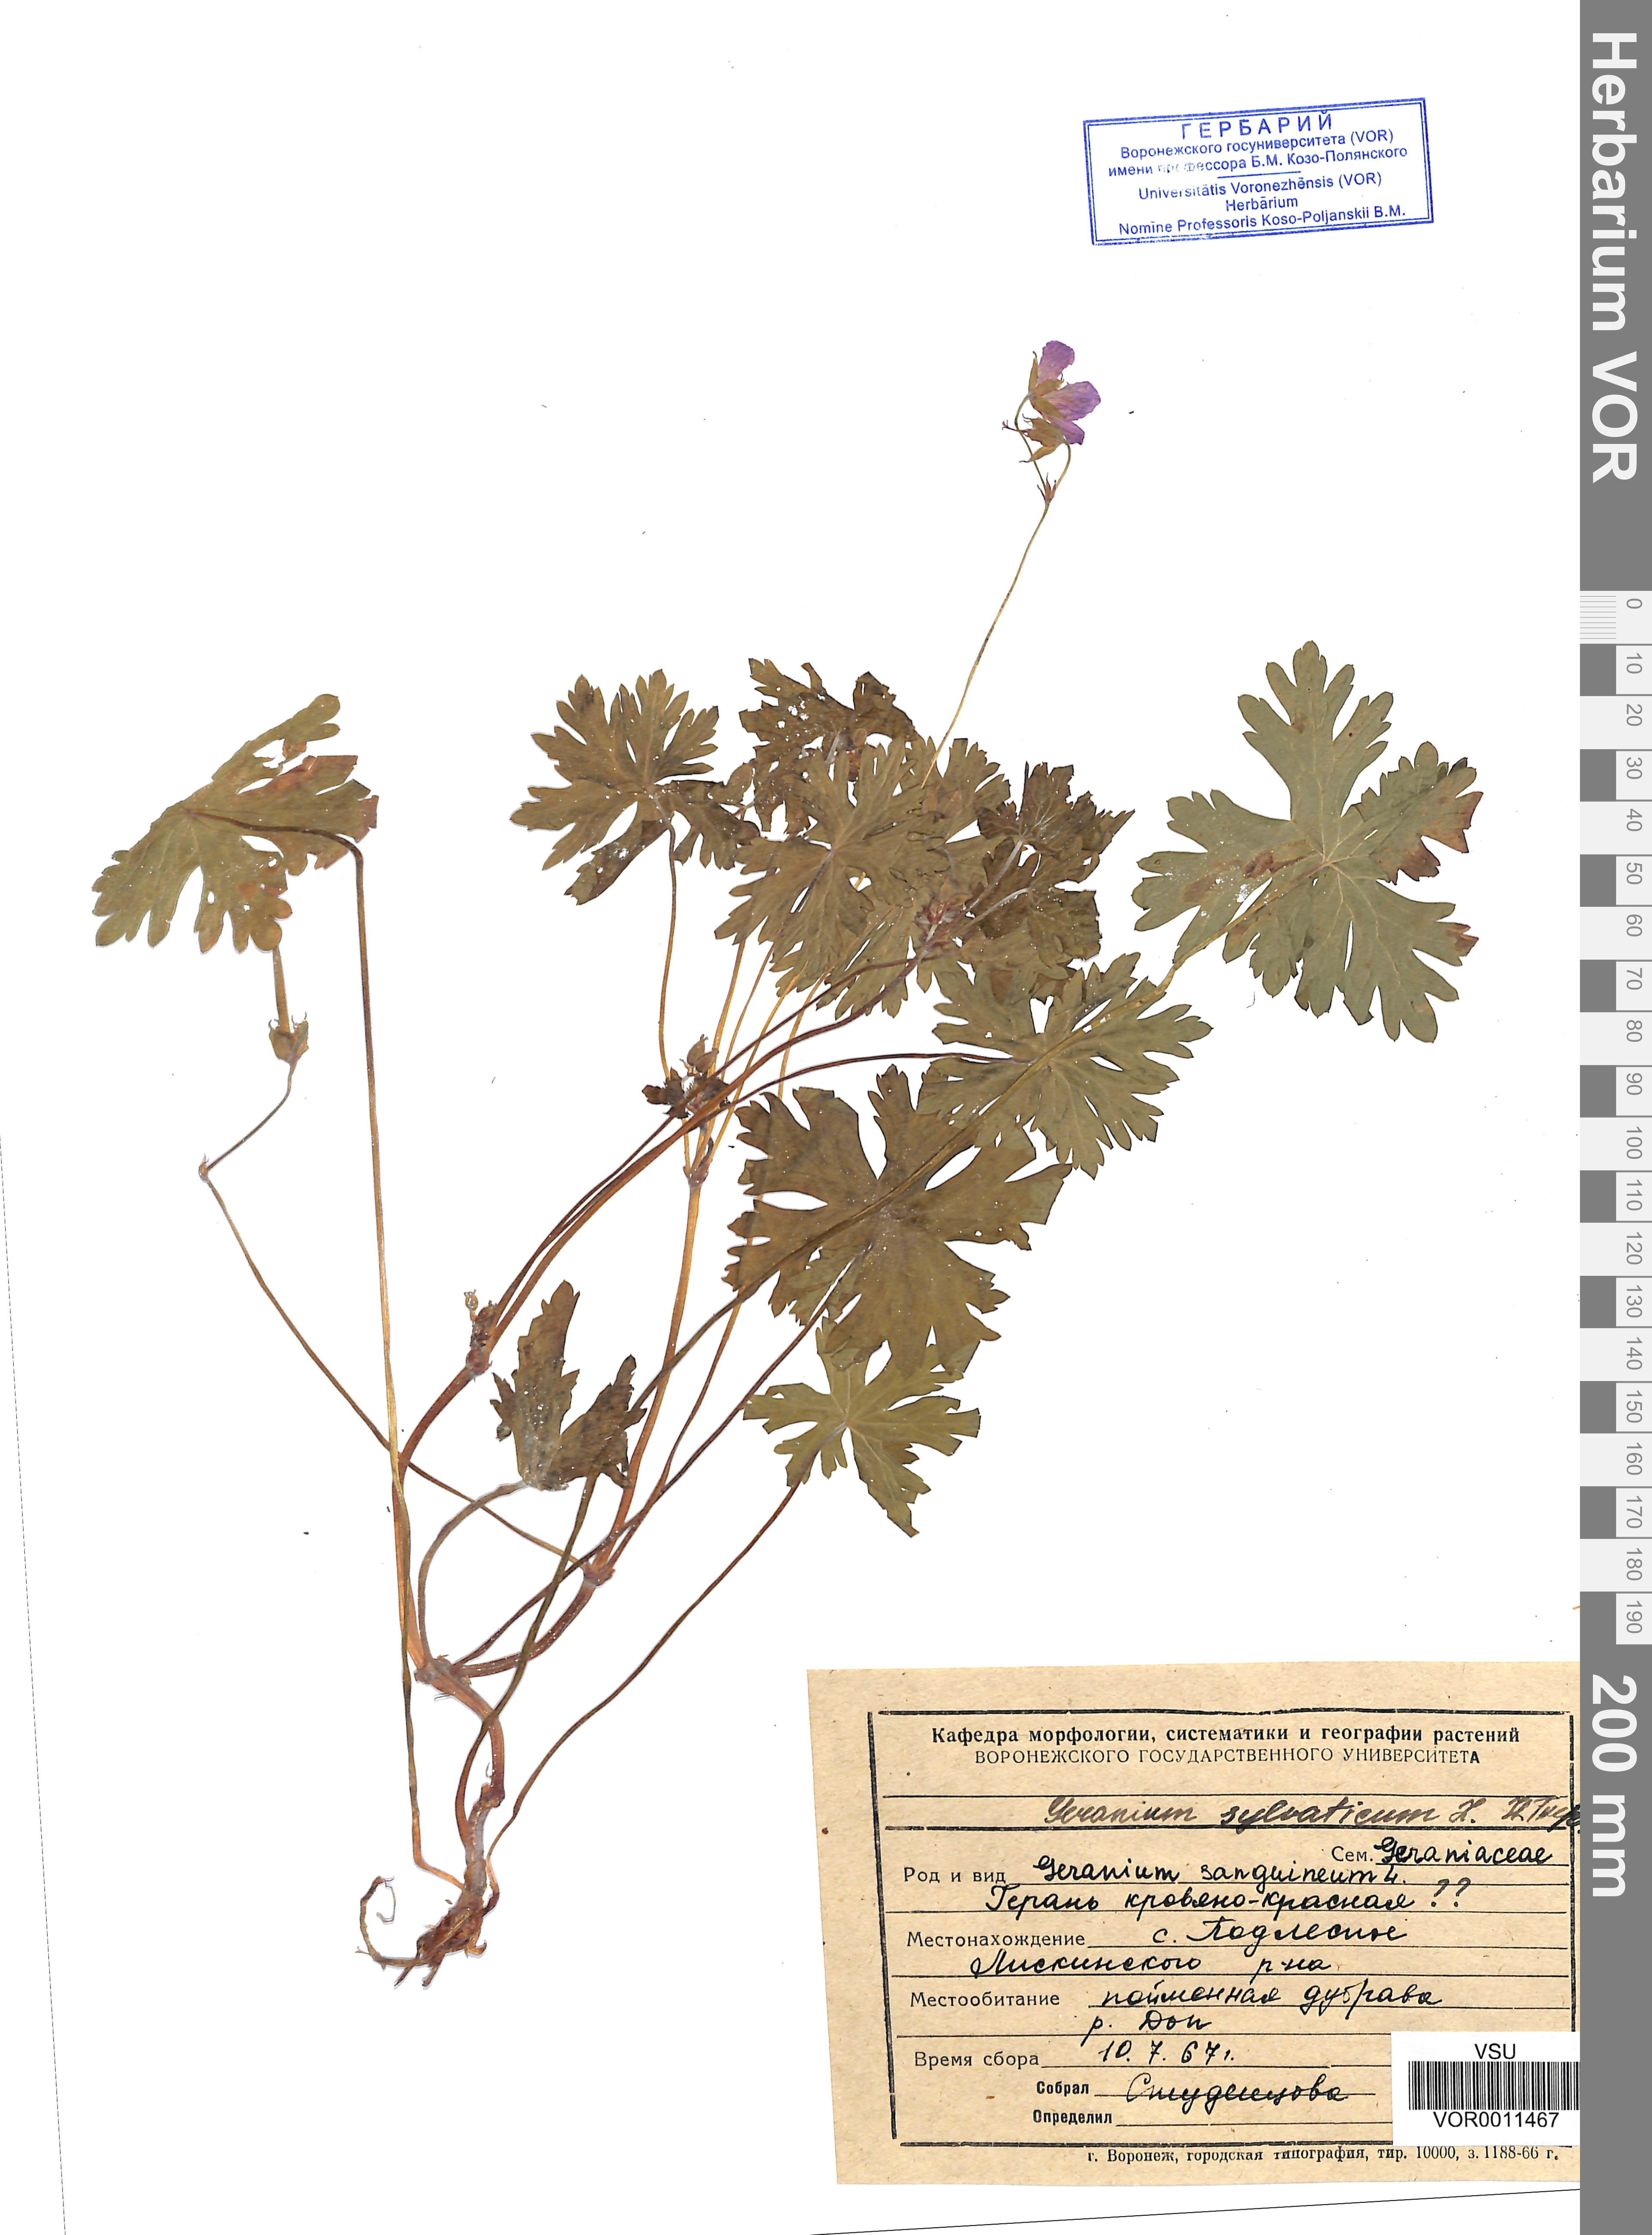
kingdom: Plantae
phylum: Tracheophyta
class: Magnoliopsida
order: Geraniales
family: Geraniaceae
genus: Geranium
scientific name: Geranium sibiricum
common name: Siberian crane's-bill
